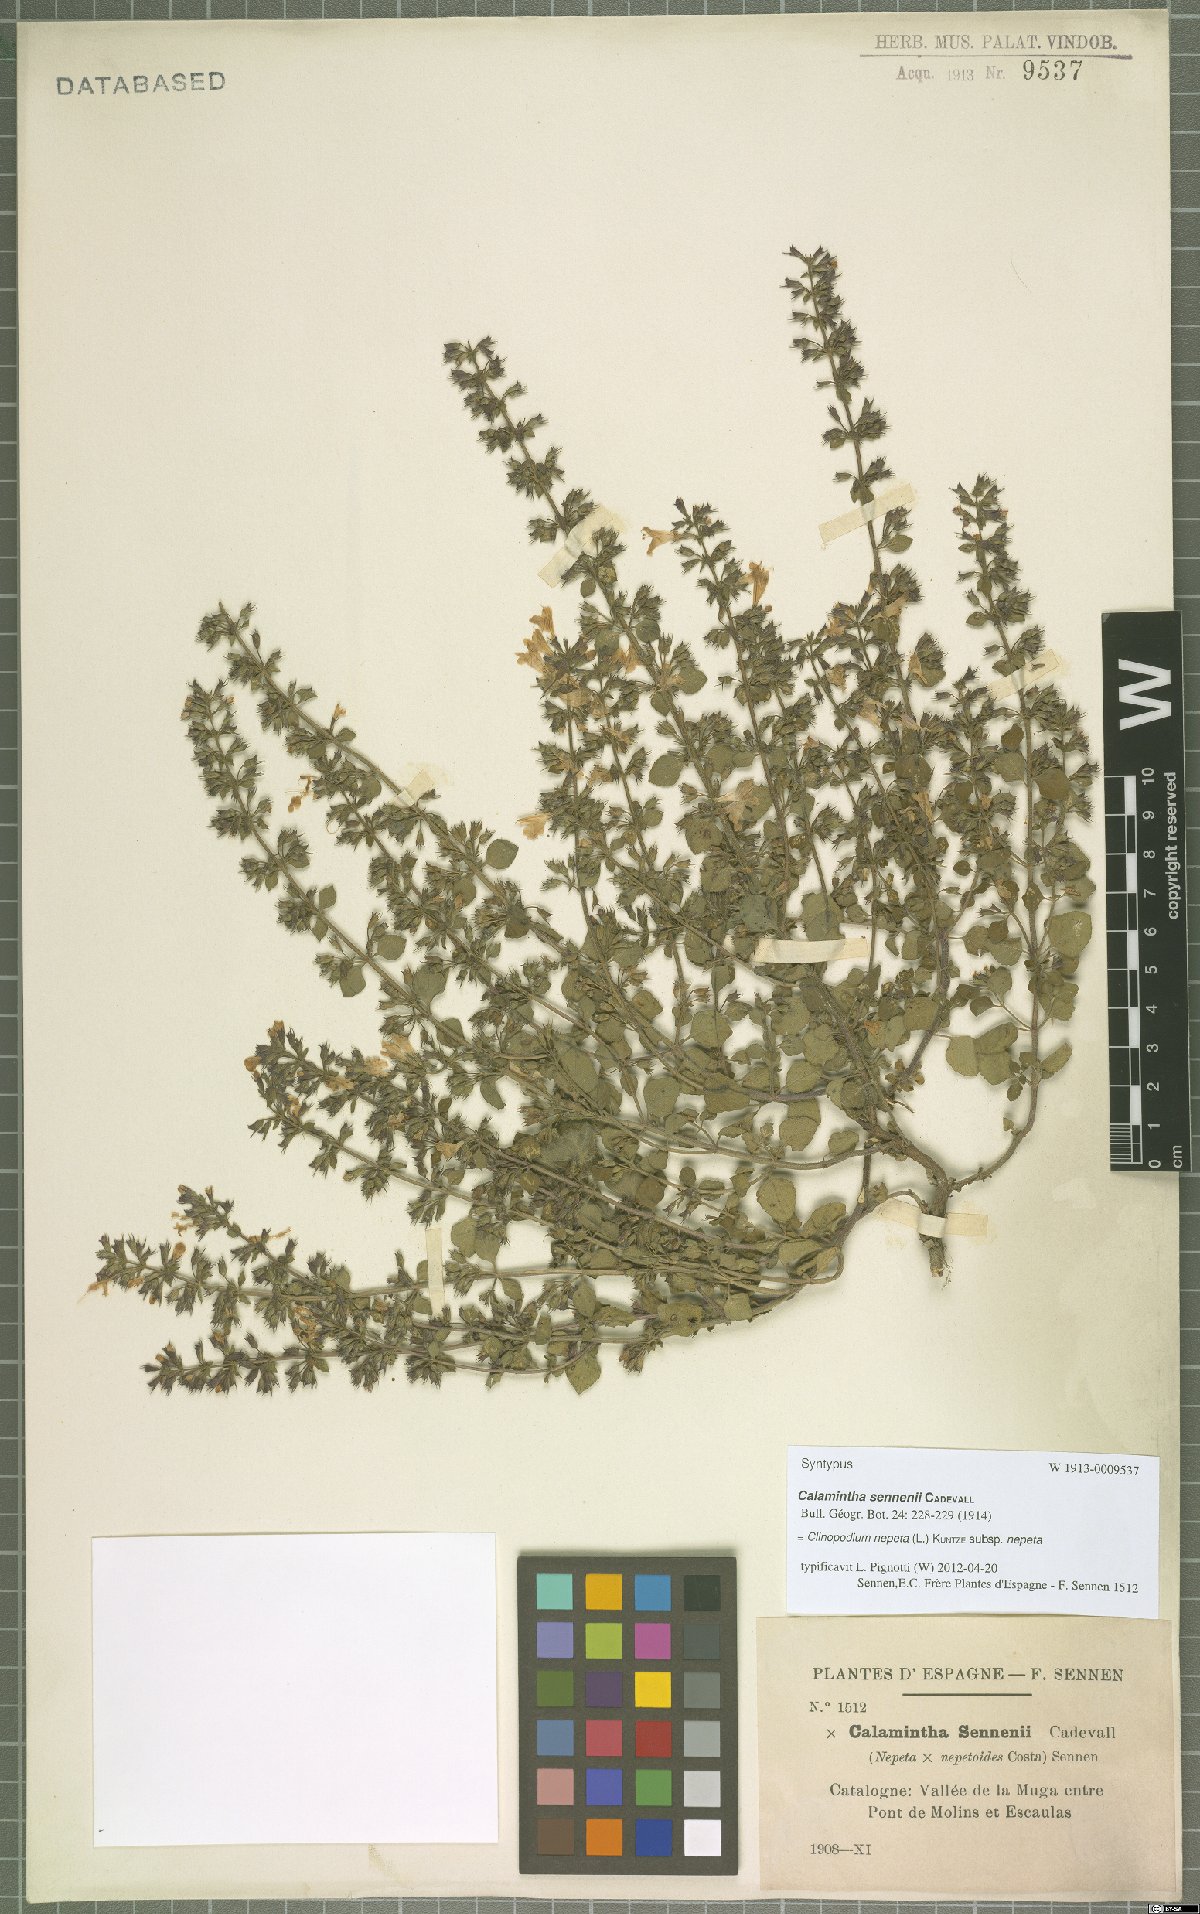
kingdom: Plantae
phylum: Tracheophyta
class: Magnoliopsida
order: Lamiales
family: Lamiaceae
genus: Clinopodium
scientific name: Clinopodium nepeta
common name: Lesser calamint
